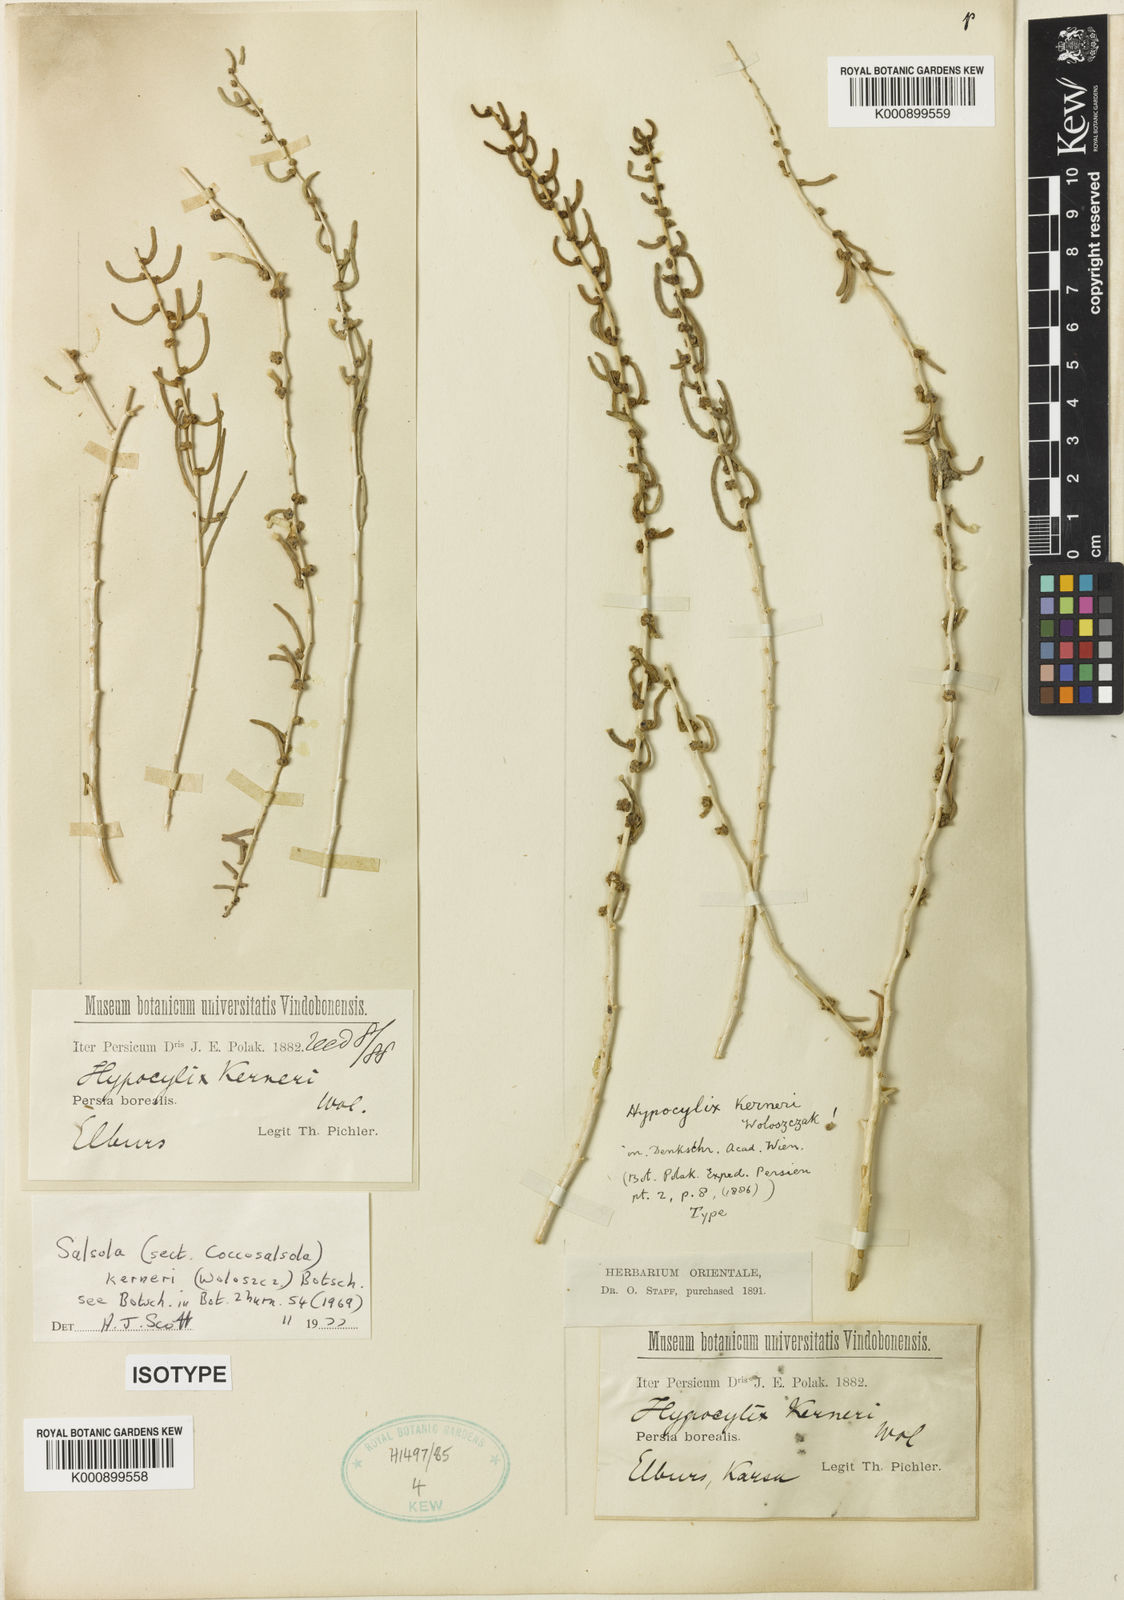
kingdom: Plantae
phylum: Tracheophyta
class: Magnoliopsida
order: Caryophyllales
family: Amaranthaceae
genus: Soda
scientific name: Soda kerneri
